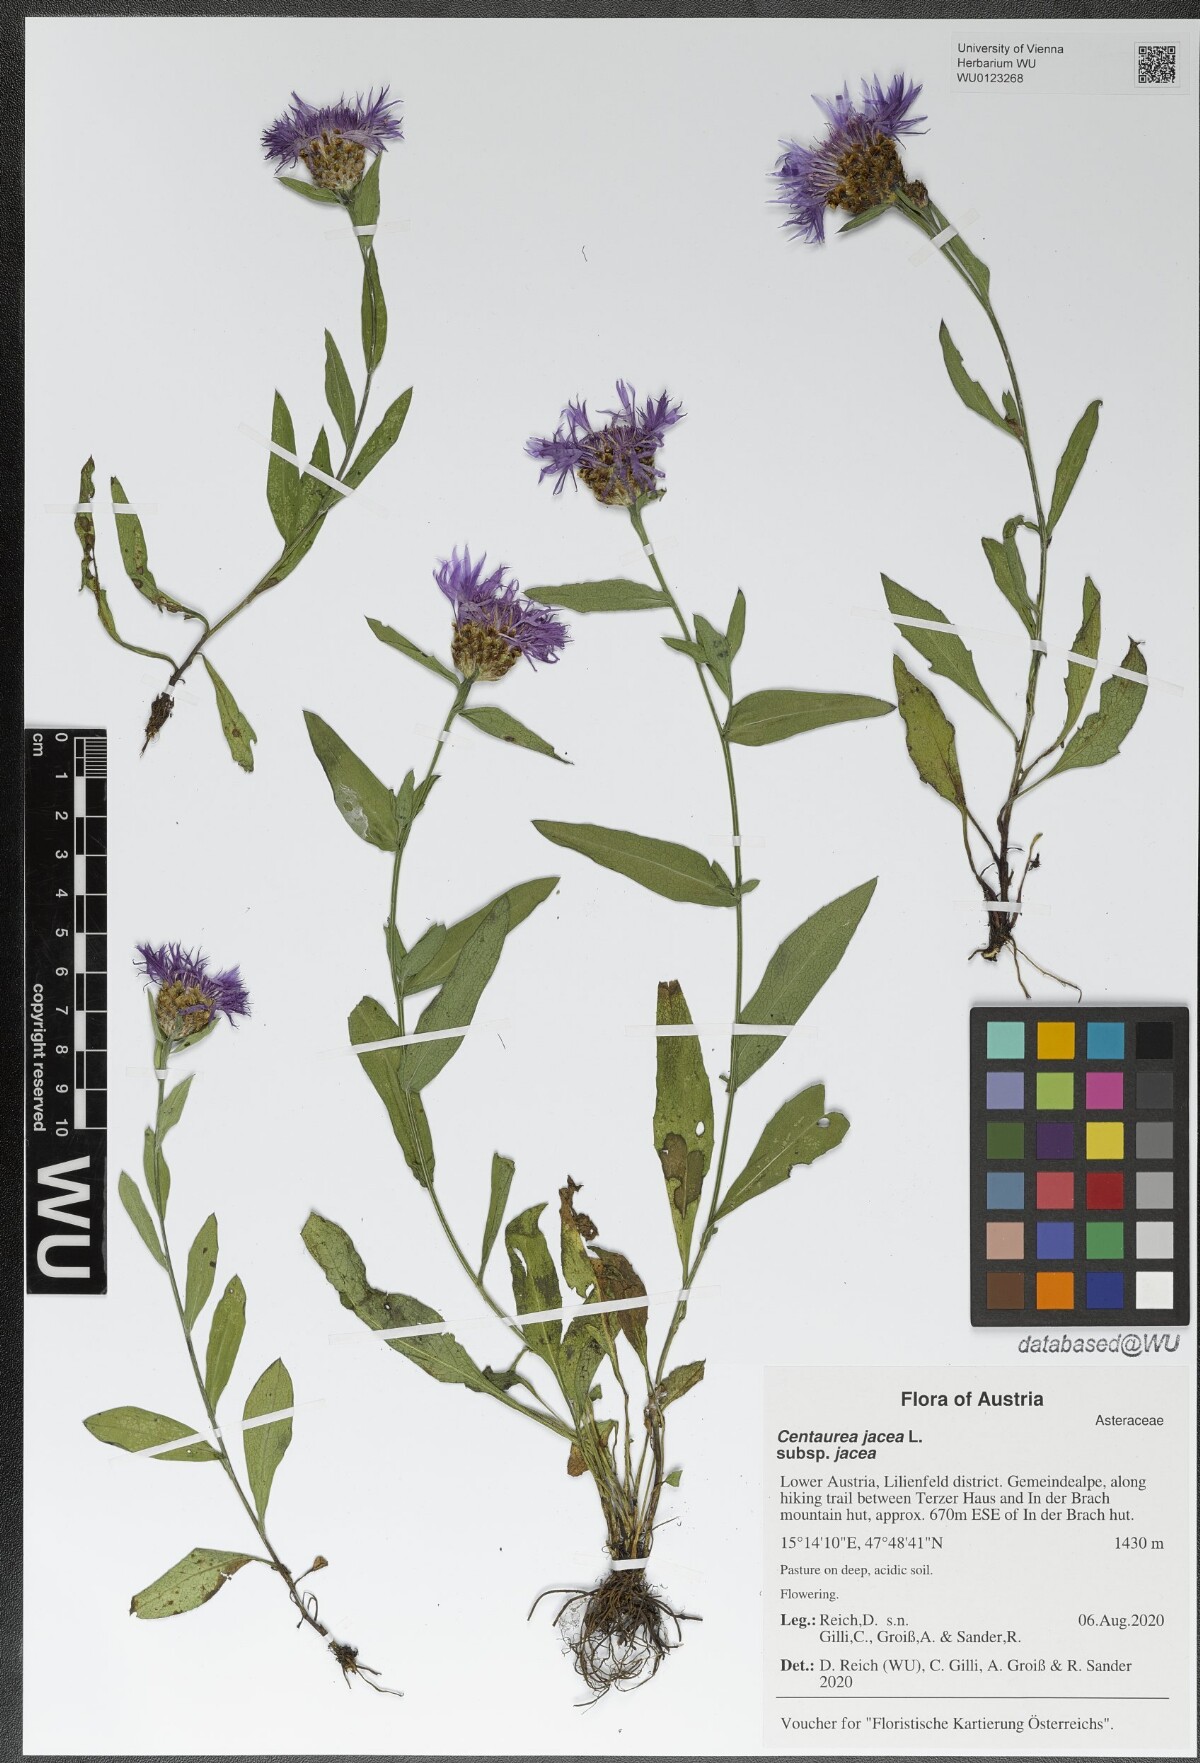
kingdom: Plantae
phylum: Tracheophyta
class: Magnoliopsida
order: Asterales
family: Asteraceae
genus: Centaurea
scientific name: Centaurea jacea
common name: Brown knapweed
